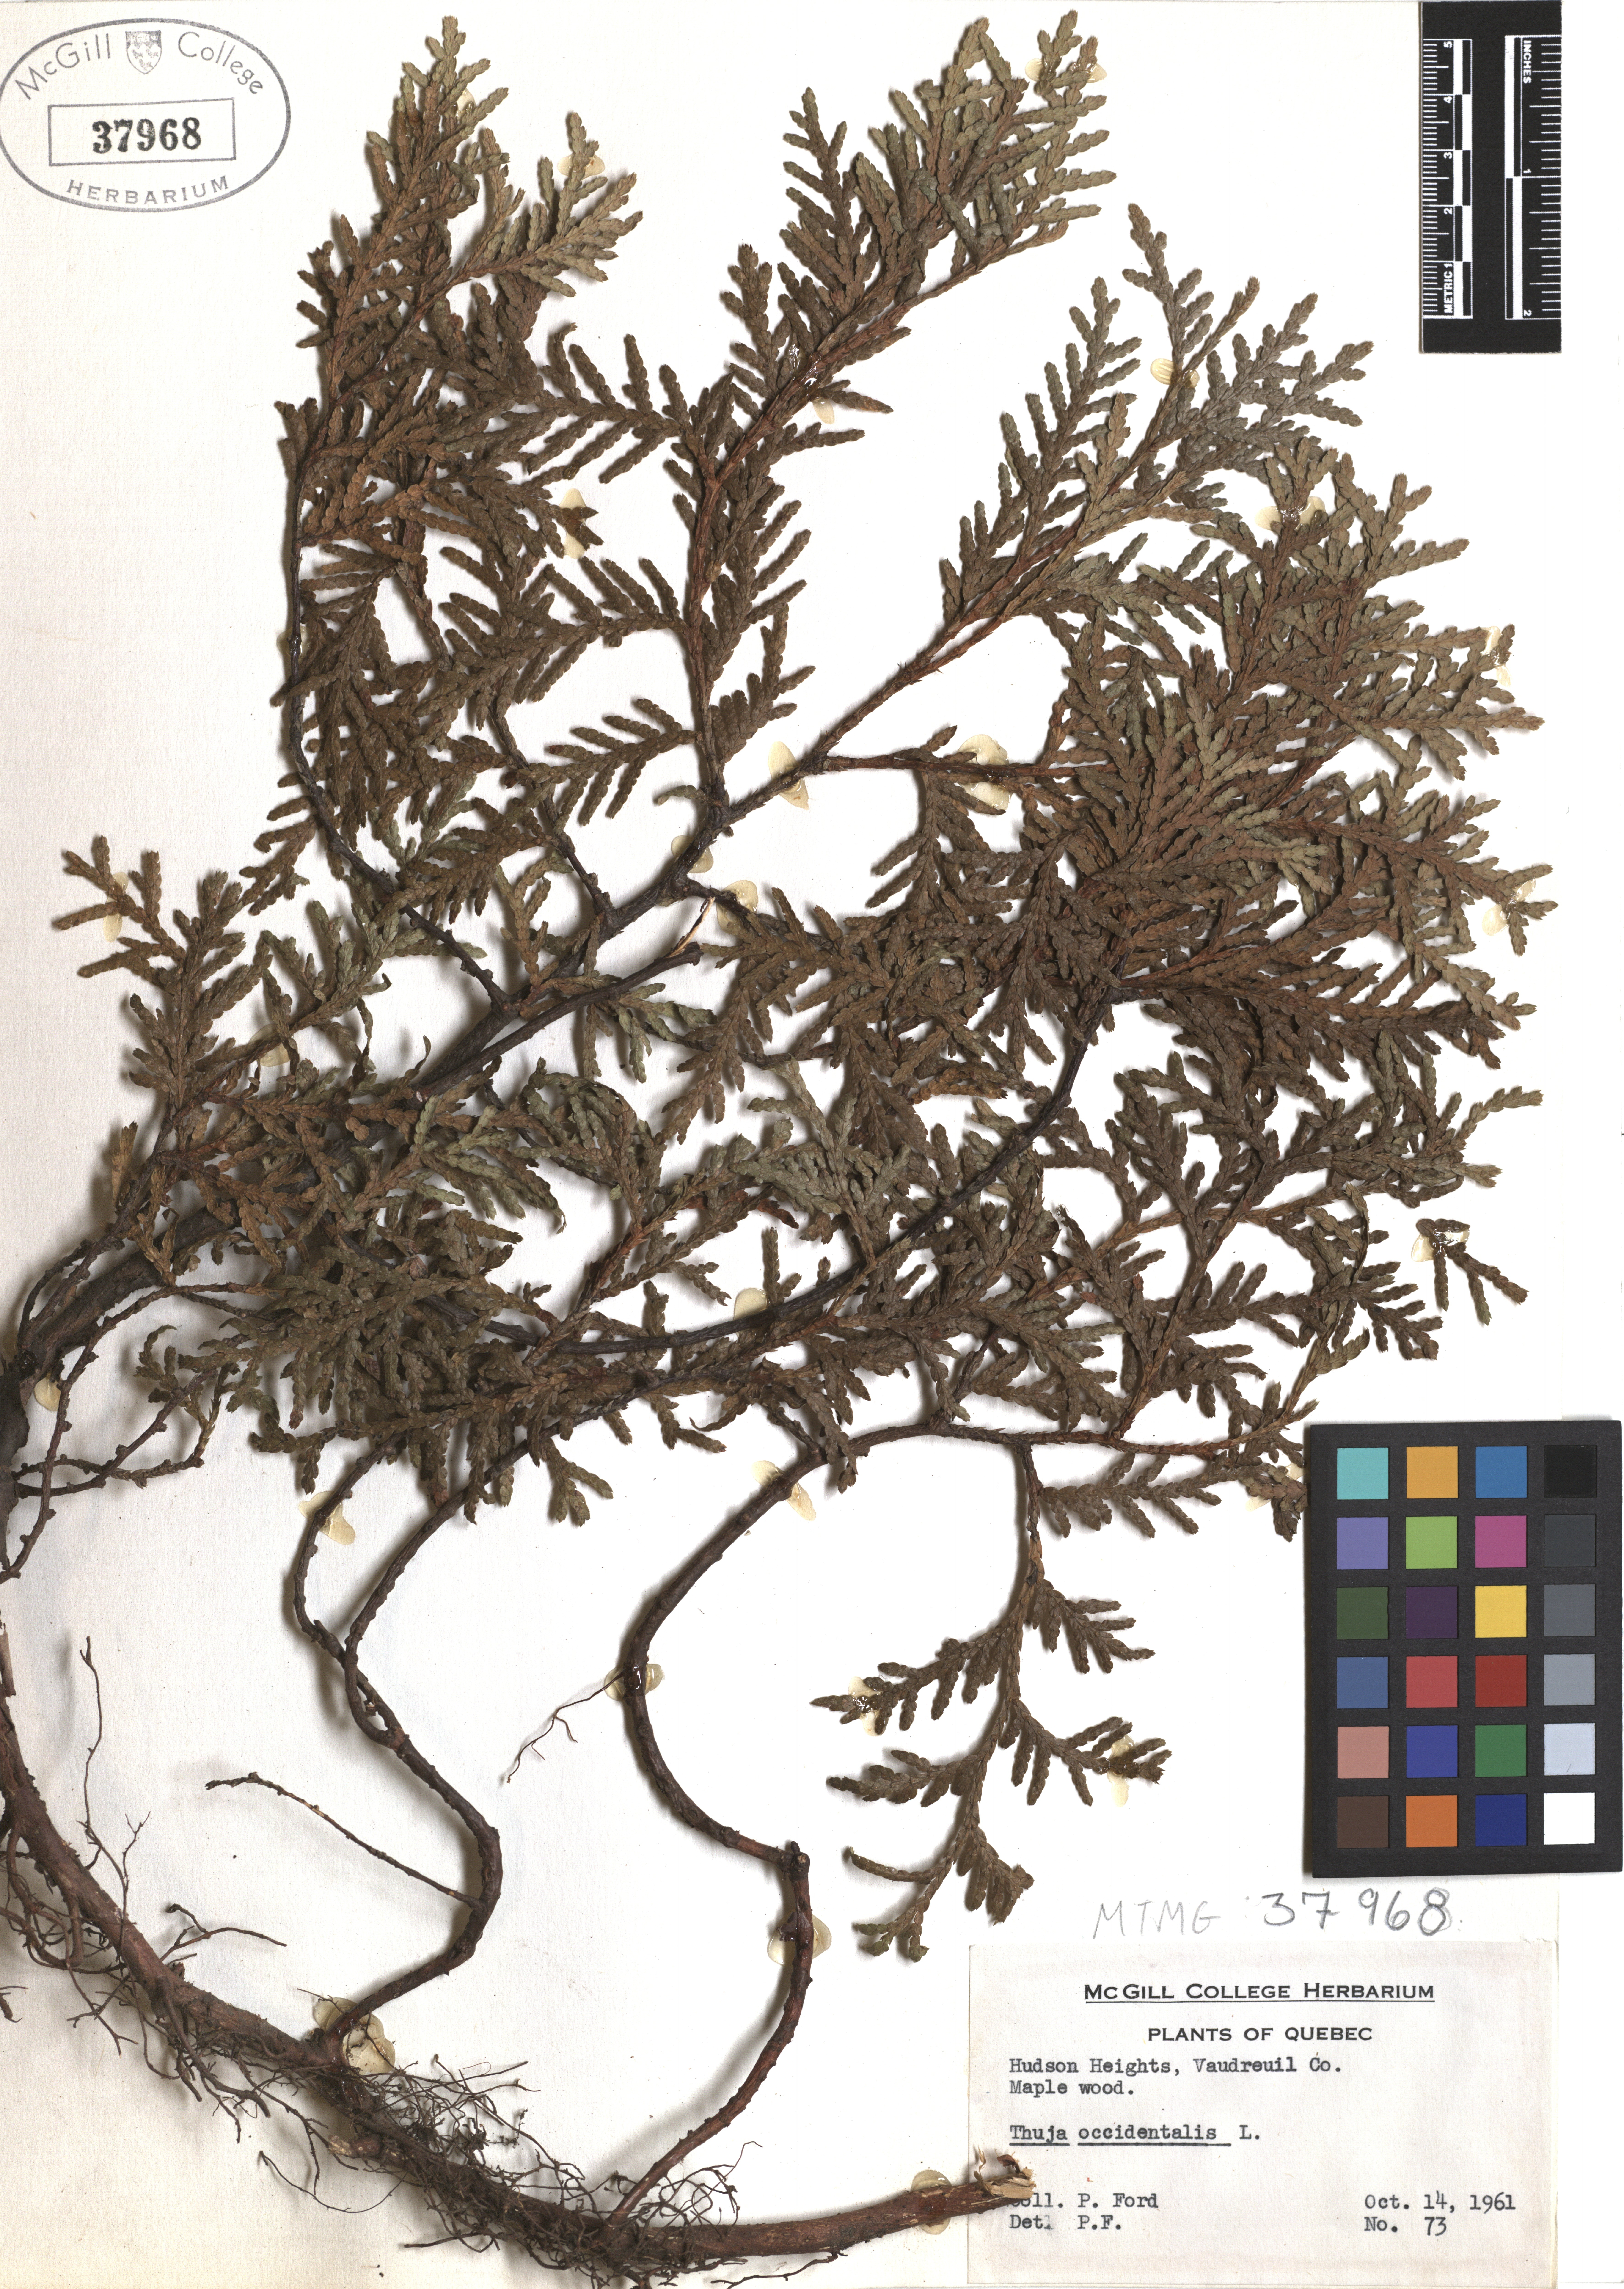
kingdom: Plantae
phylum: Tracheophyta
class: Pinopsida
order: Pinales
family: Cupressaceae
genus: Thuja
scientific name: Thuja occidentalis
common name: Northern white-cedar
